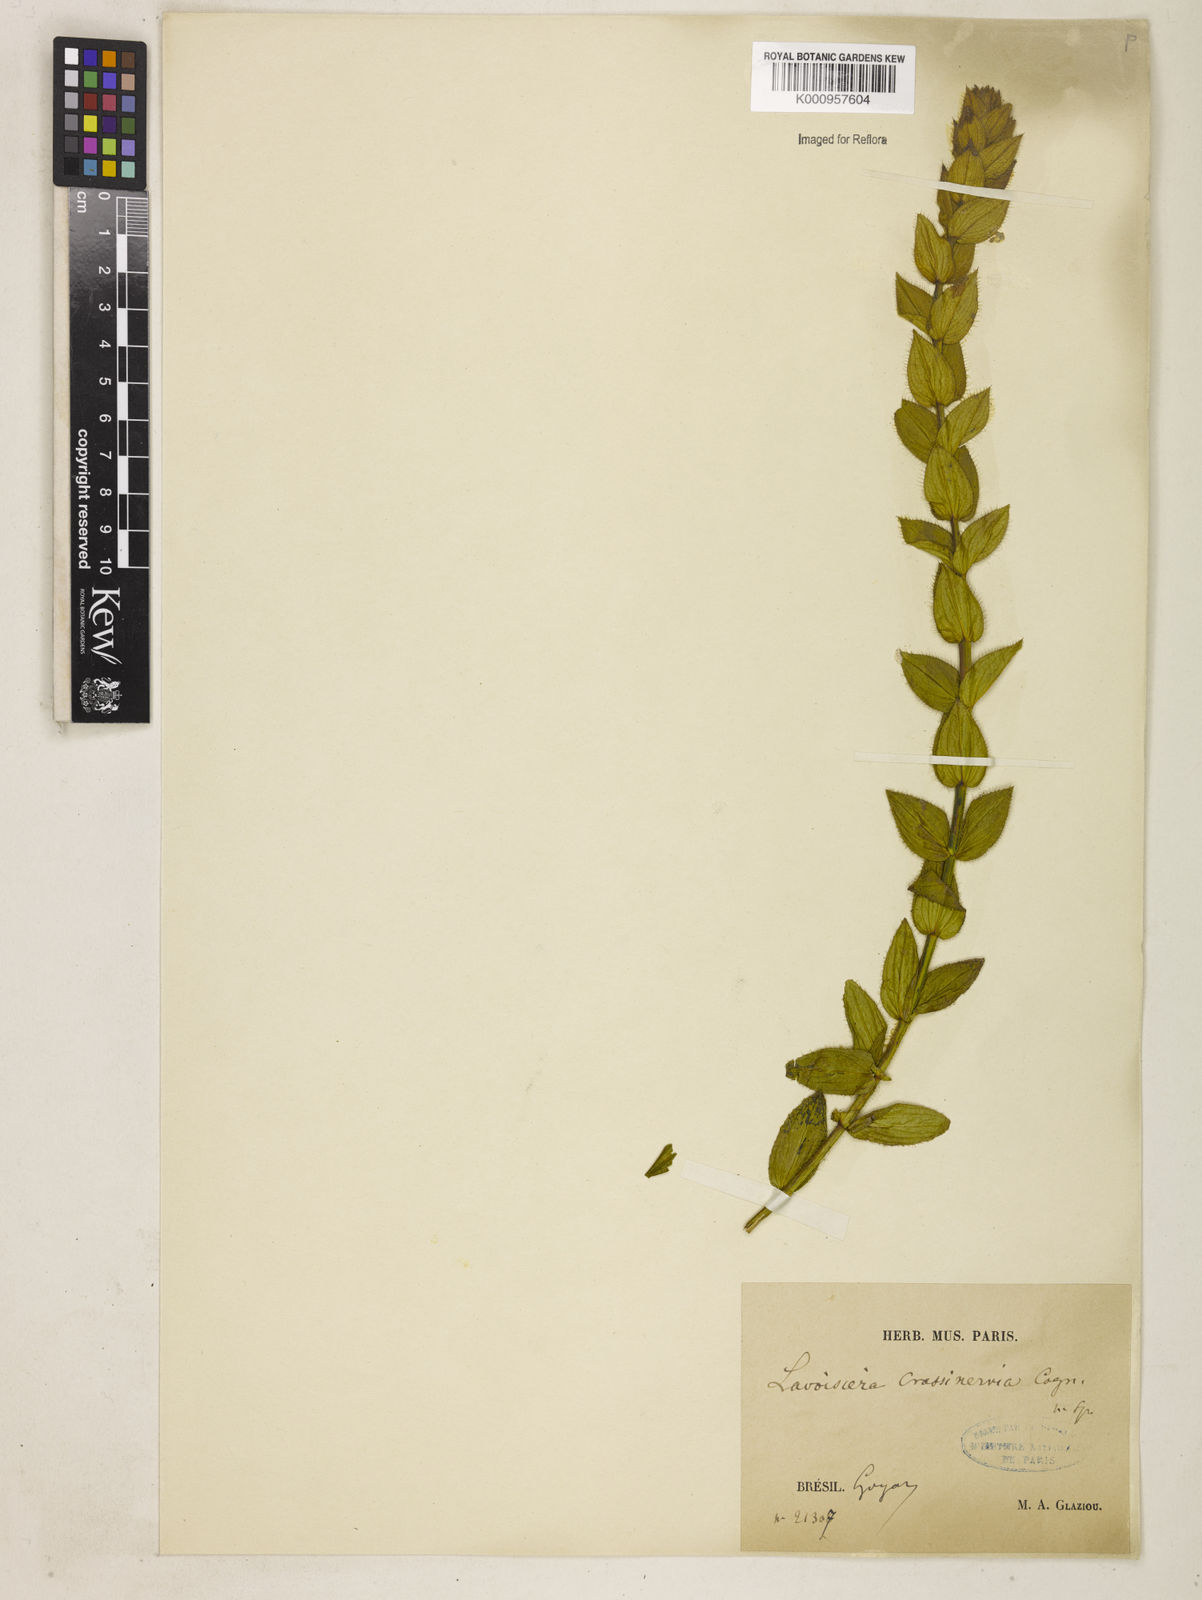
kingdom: Plantae
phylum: Tracheophyta
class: Magnoliopsida
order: Myrtales
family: Melastomataceae
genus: Microlicia
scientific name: Microlicia Lavoisiera crassinervia
